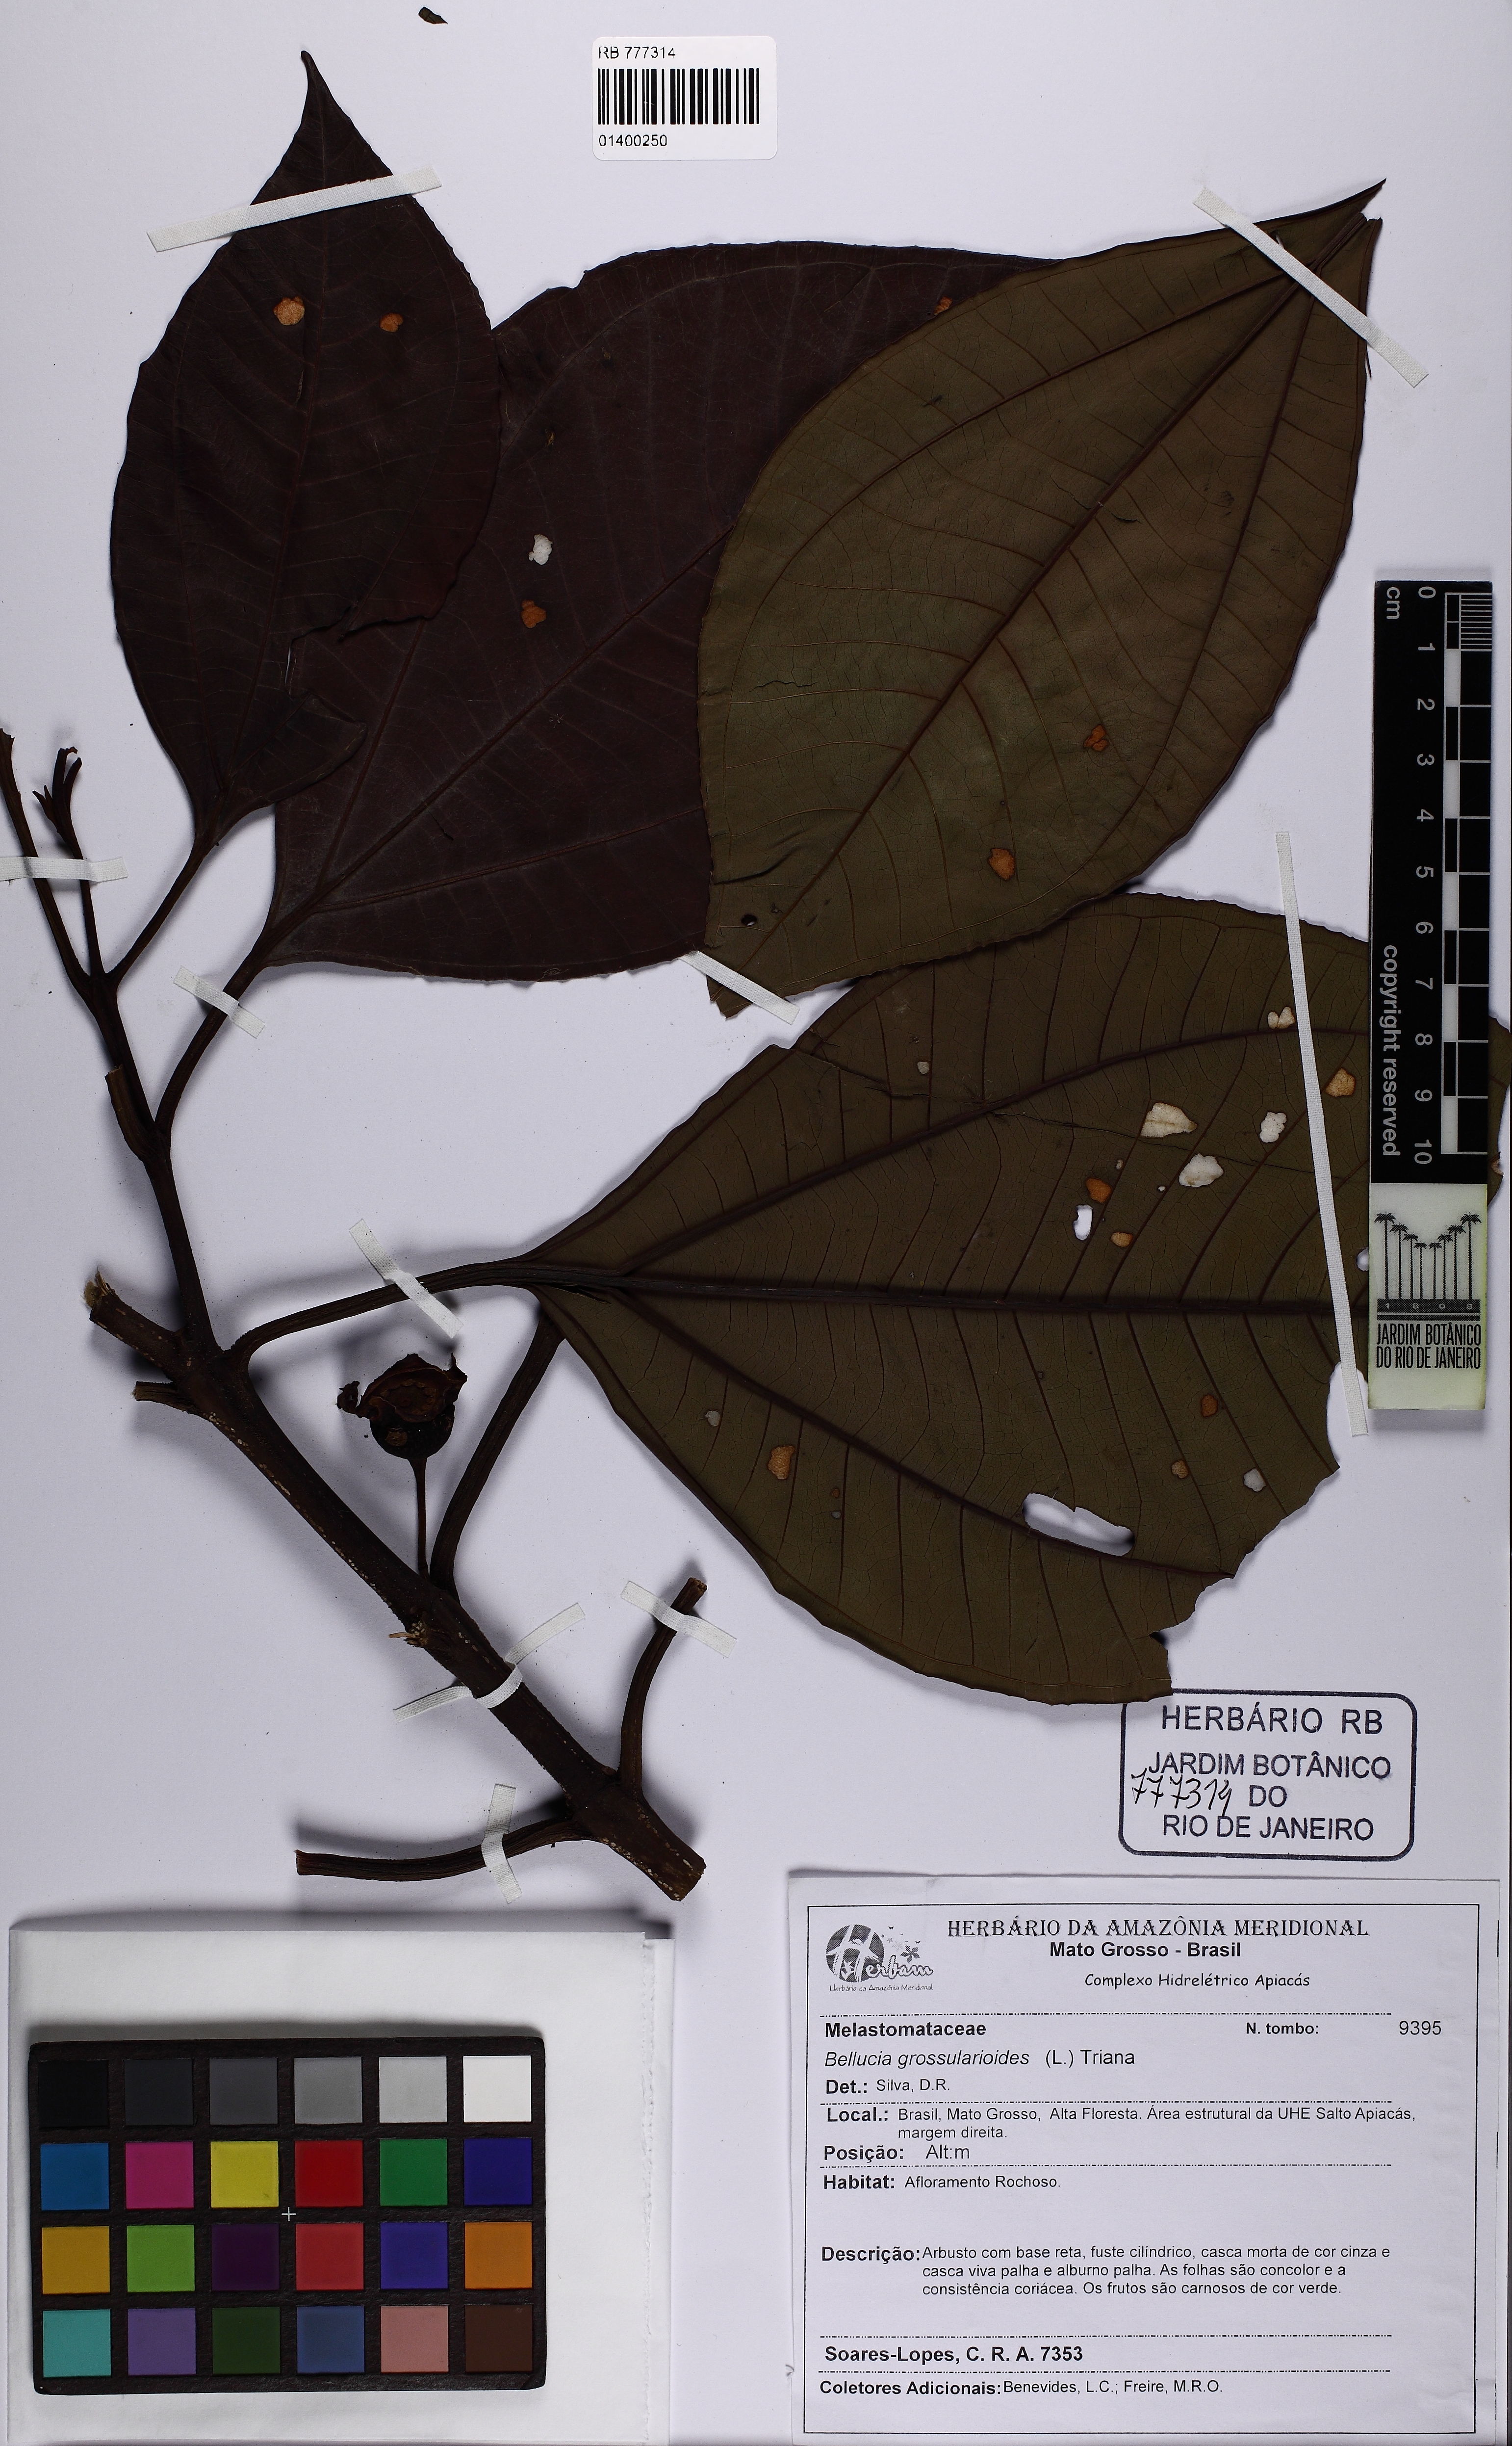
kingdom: Plantae
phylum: Tracheophyta
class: Magnoliopsida
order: Myrtales
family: Melastomataceae
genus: Bellucia
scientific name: Bellucia grossularioides
